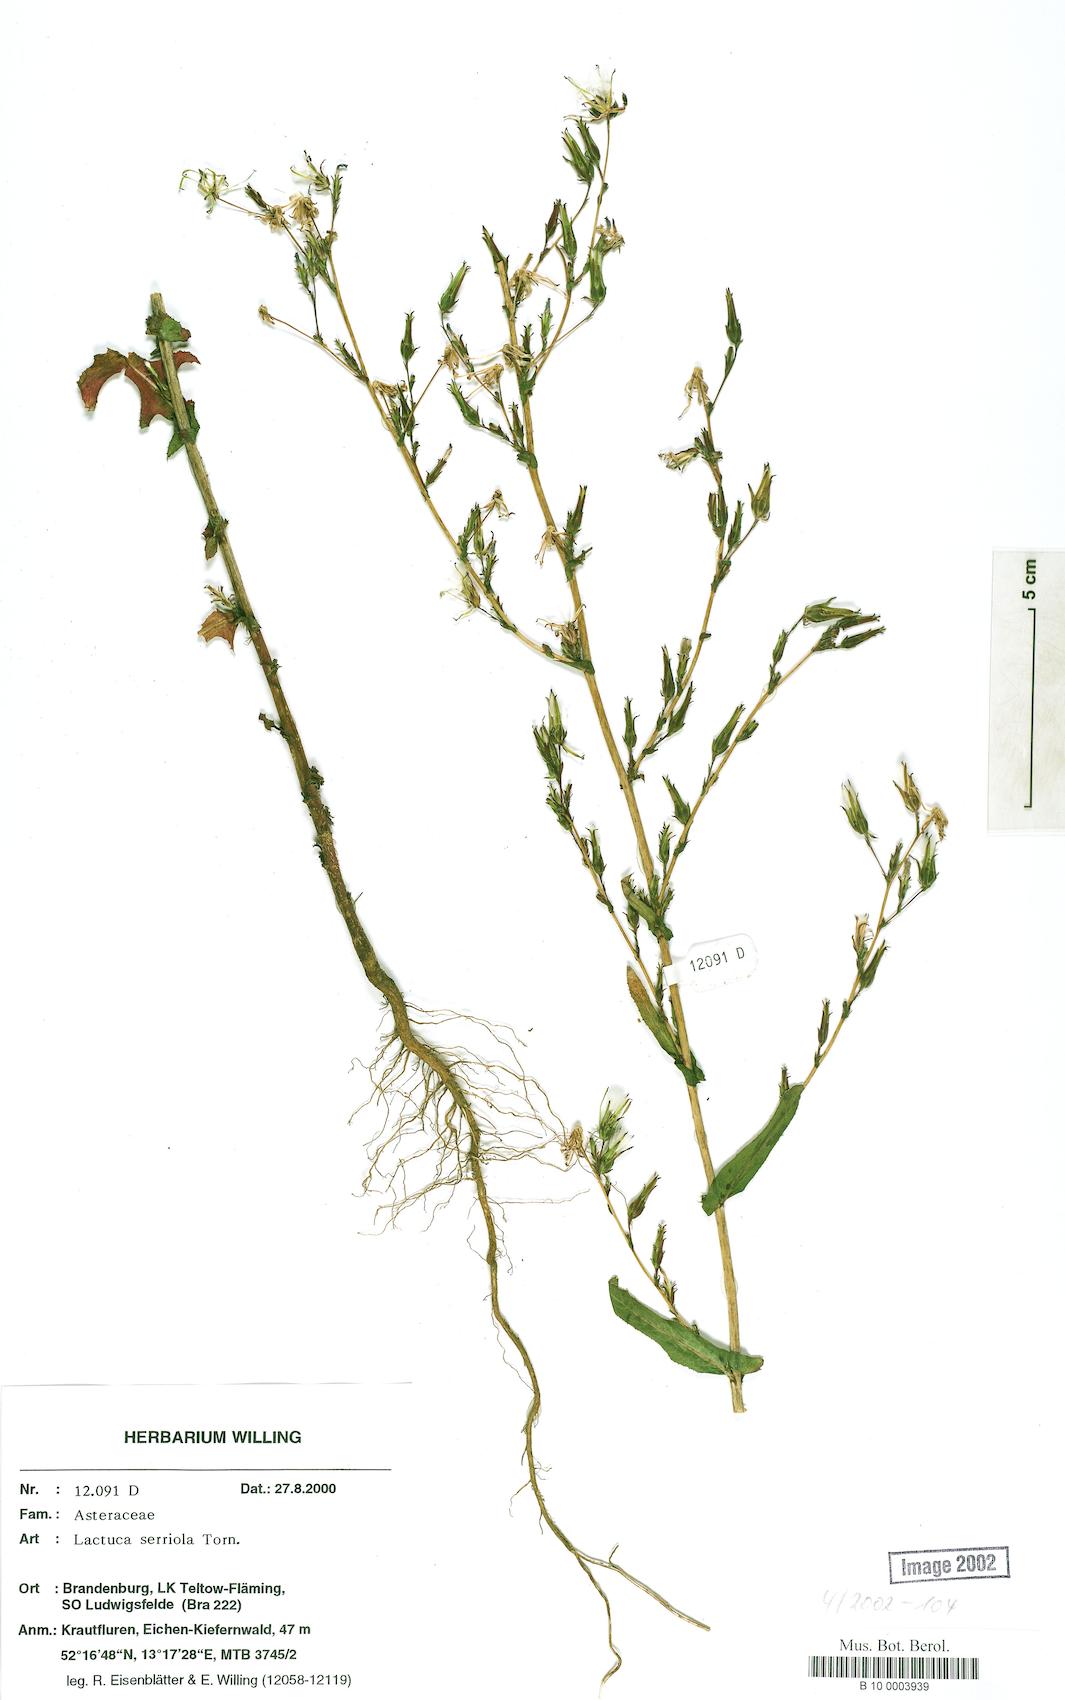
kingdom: Plantae
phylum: Tracheophyta
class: Magnoliopsida
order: Asterales
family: Asteraceae
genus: Lactuca
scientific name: Lactuca serriola
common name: Prickly lettuce
